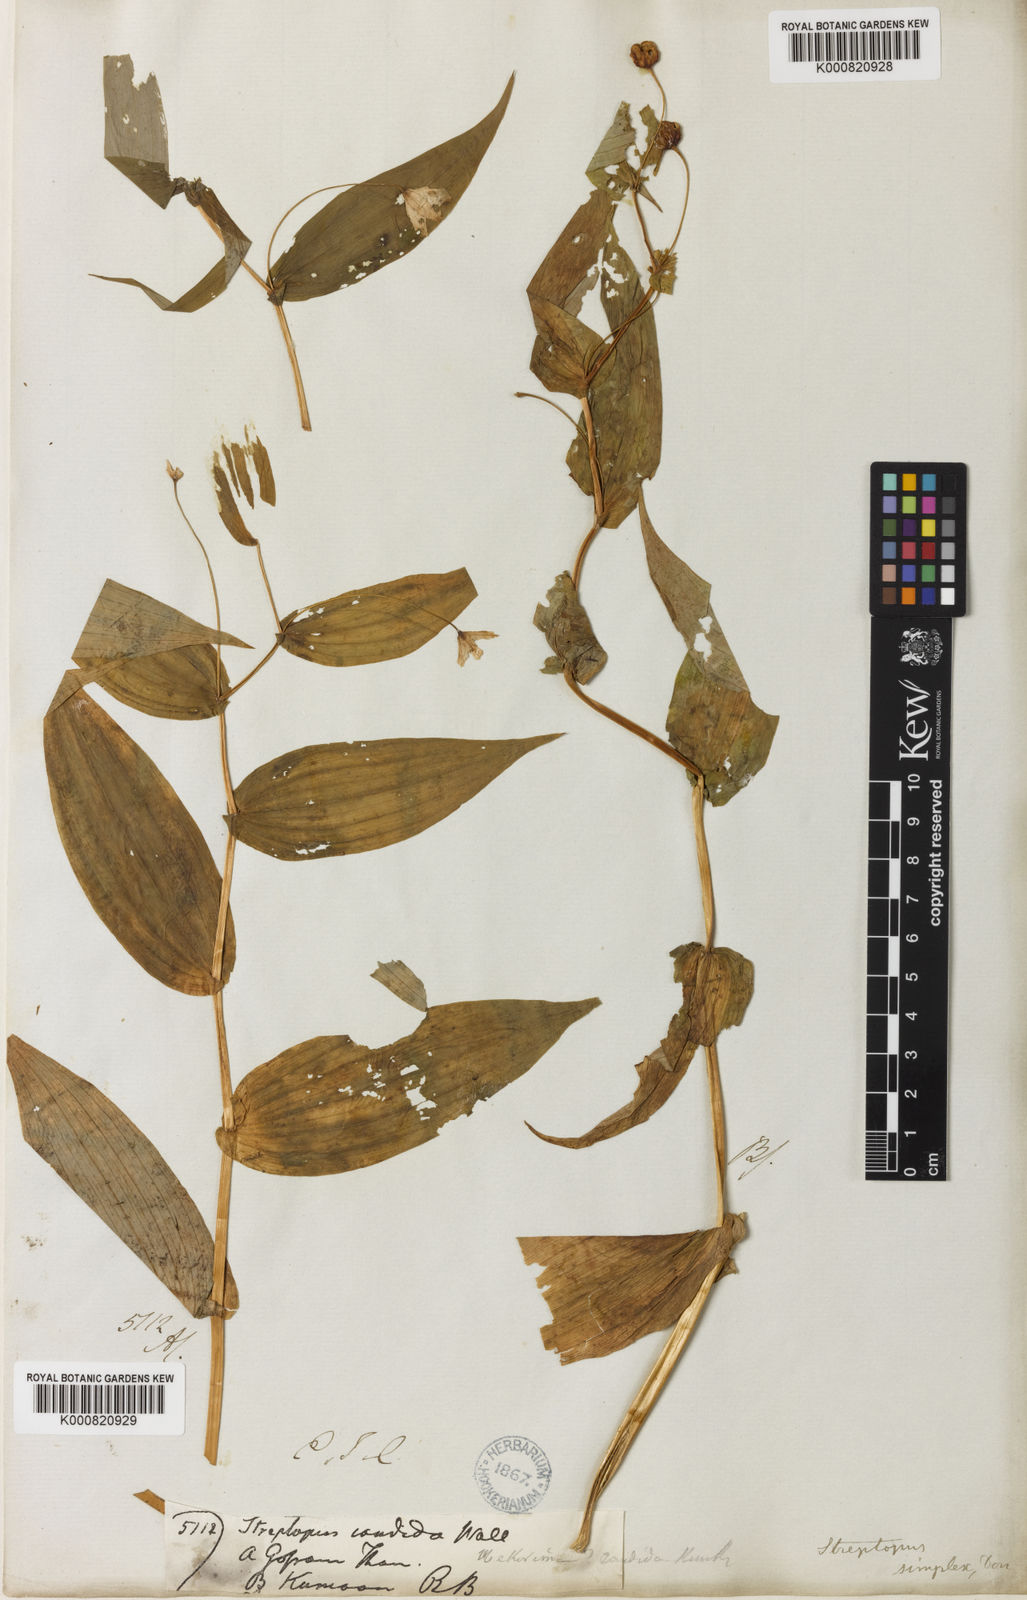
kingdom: Plantae
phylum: Tracheophyta
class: Liliopsida
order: Liliales
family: Liliaceae
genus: Streptopus
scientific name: Streptopus simplex
